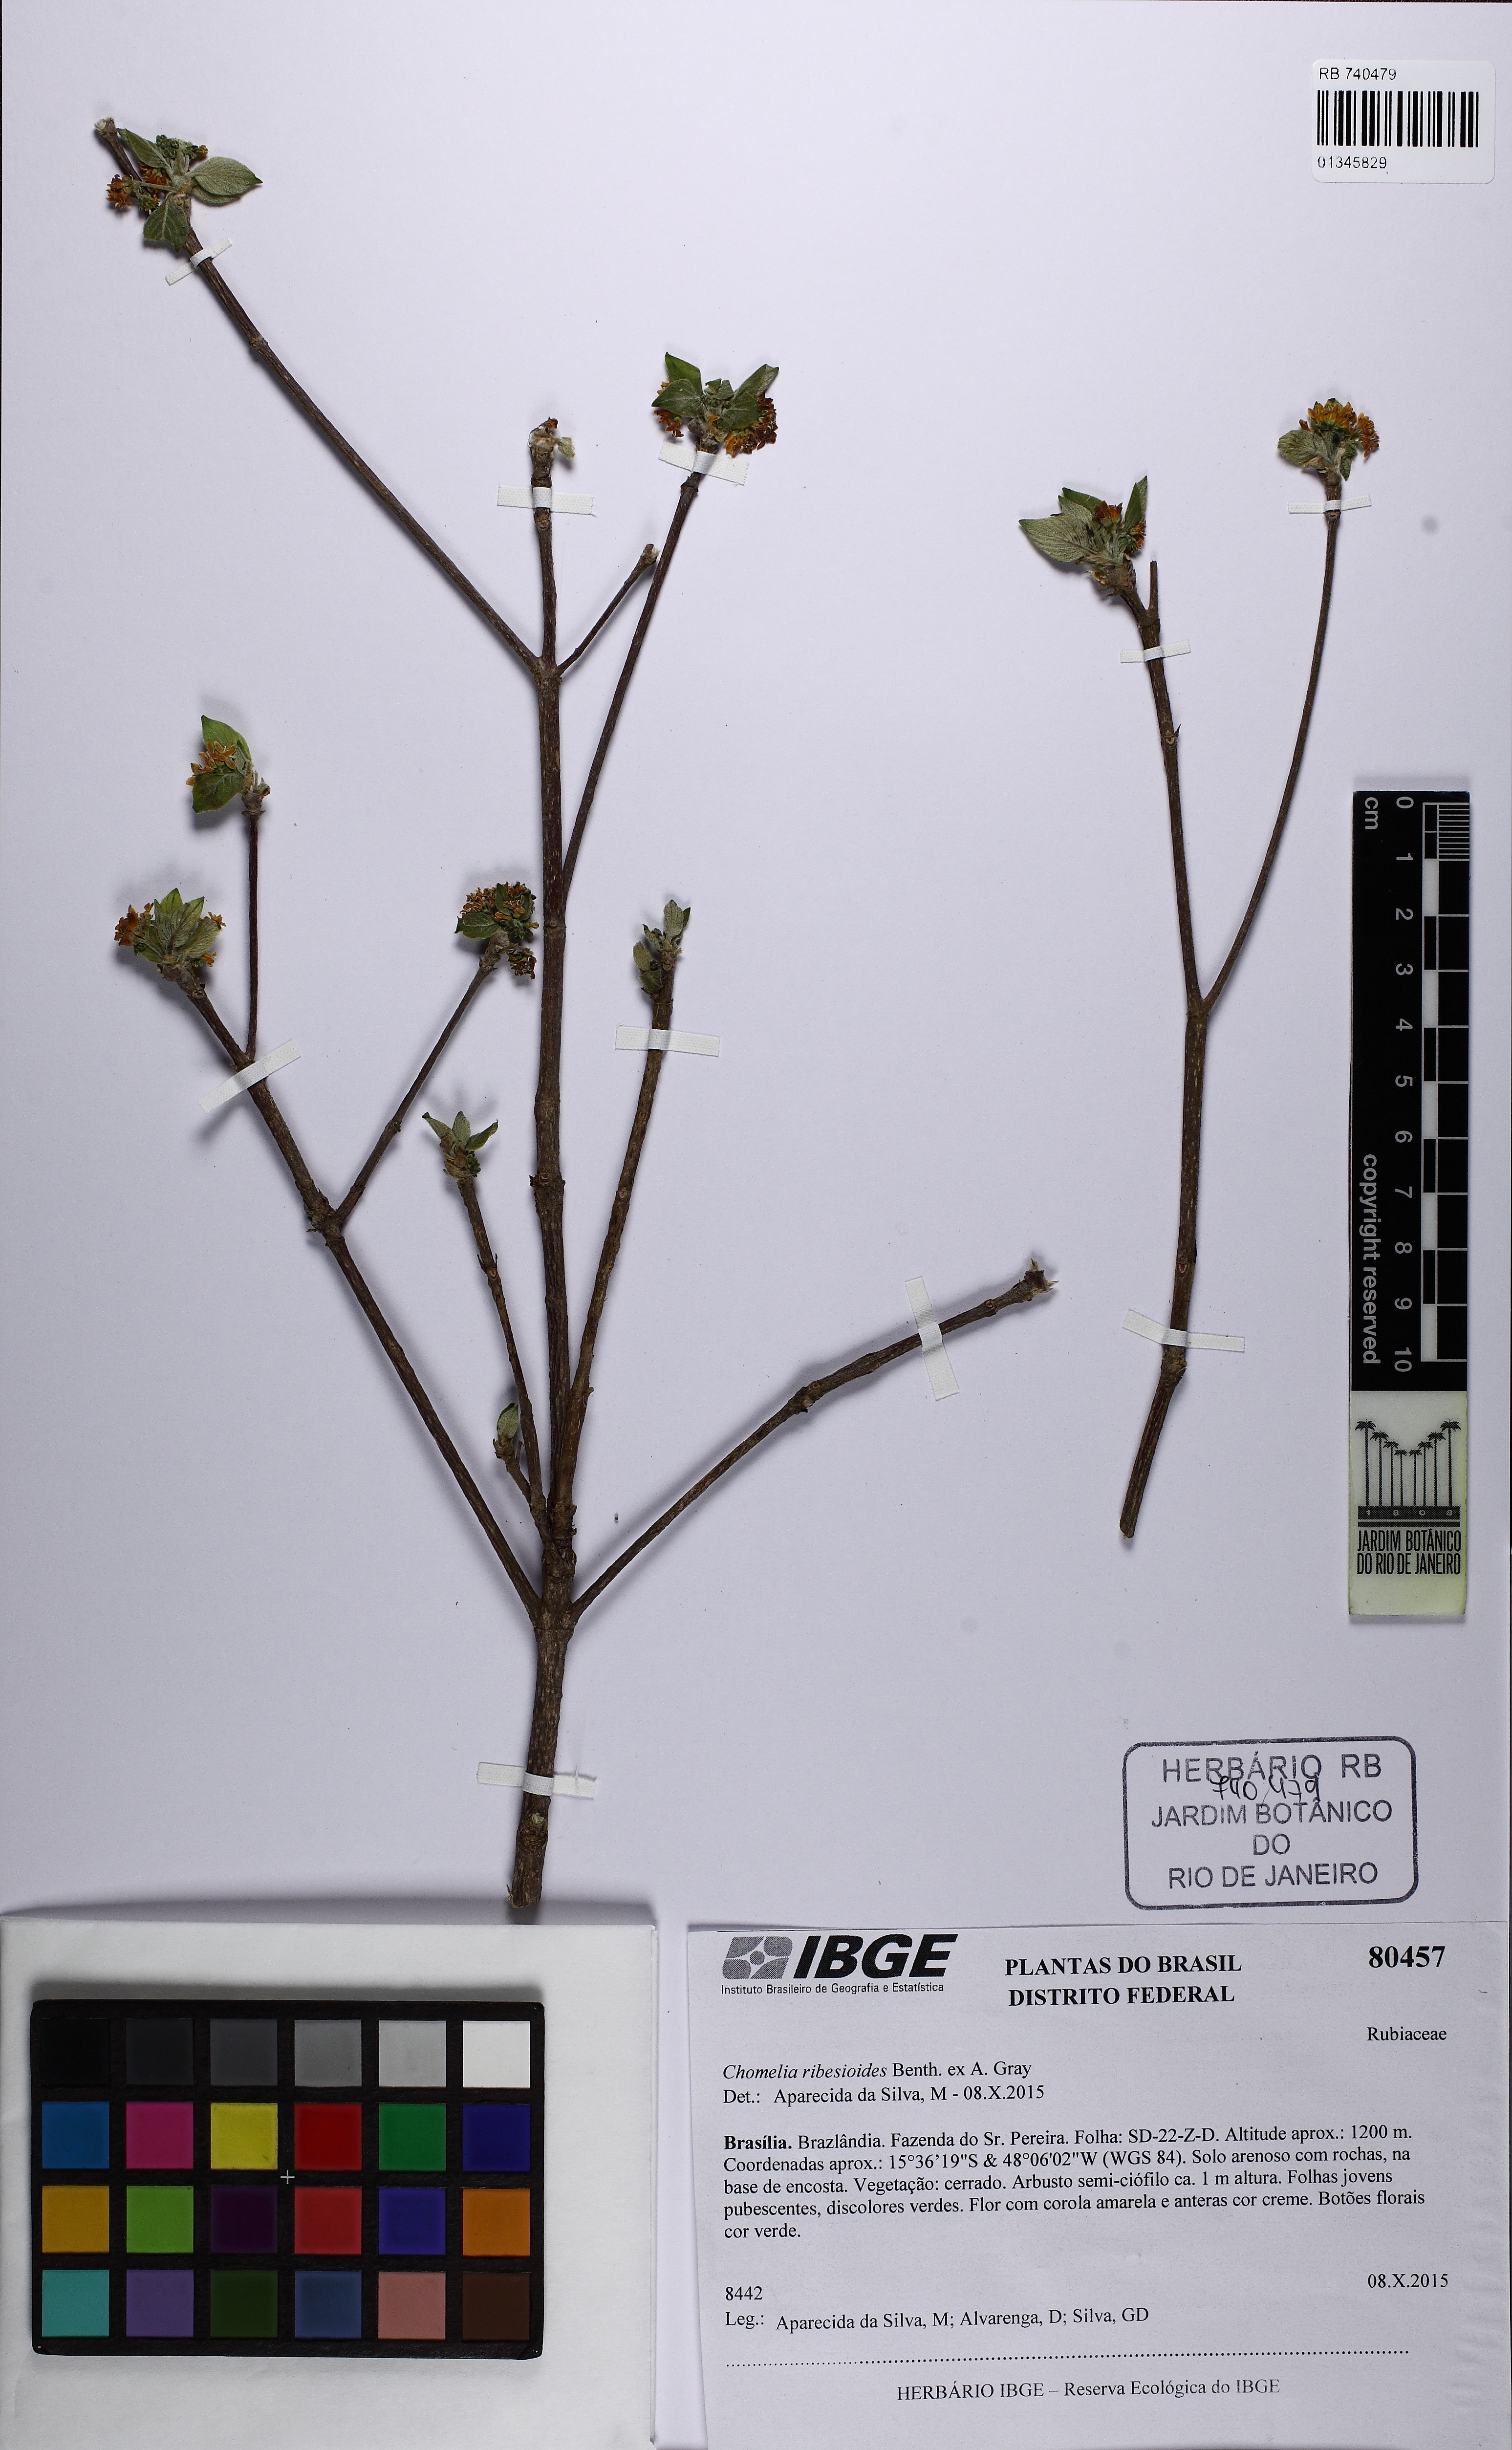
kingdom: Plantae
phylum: Tracheophyta
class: Magnoliopsida
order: Gentianales
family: Rubiaceae
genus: Chomelia
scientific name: Chomelia ribesioides
